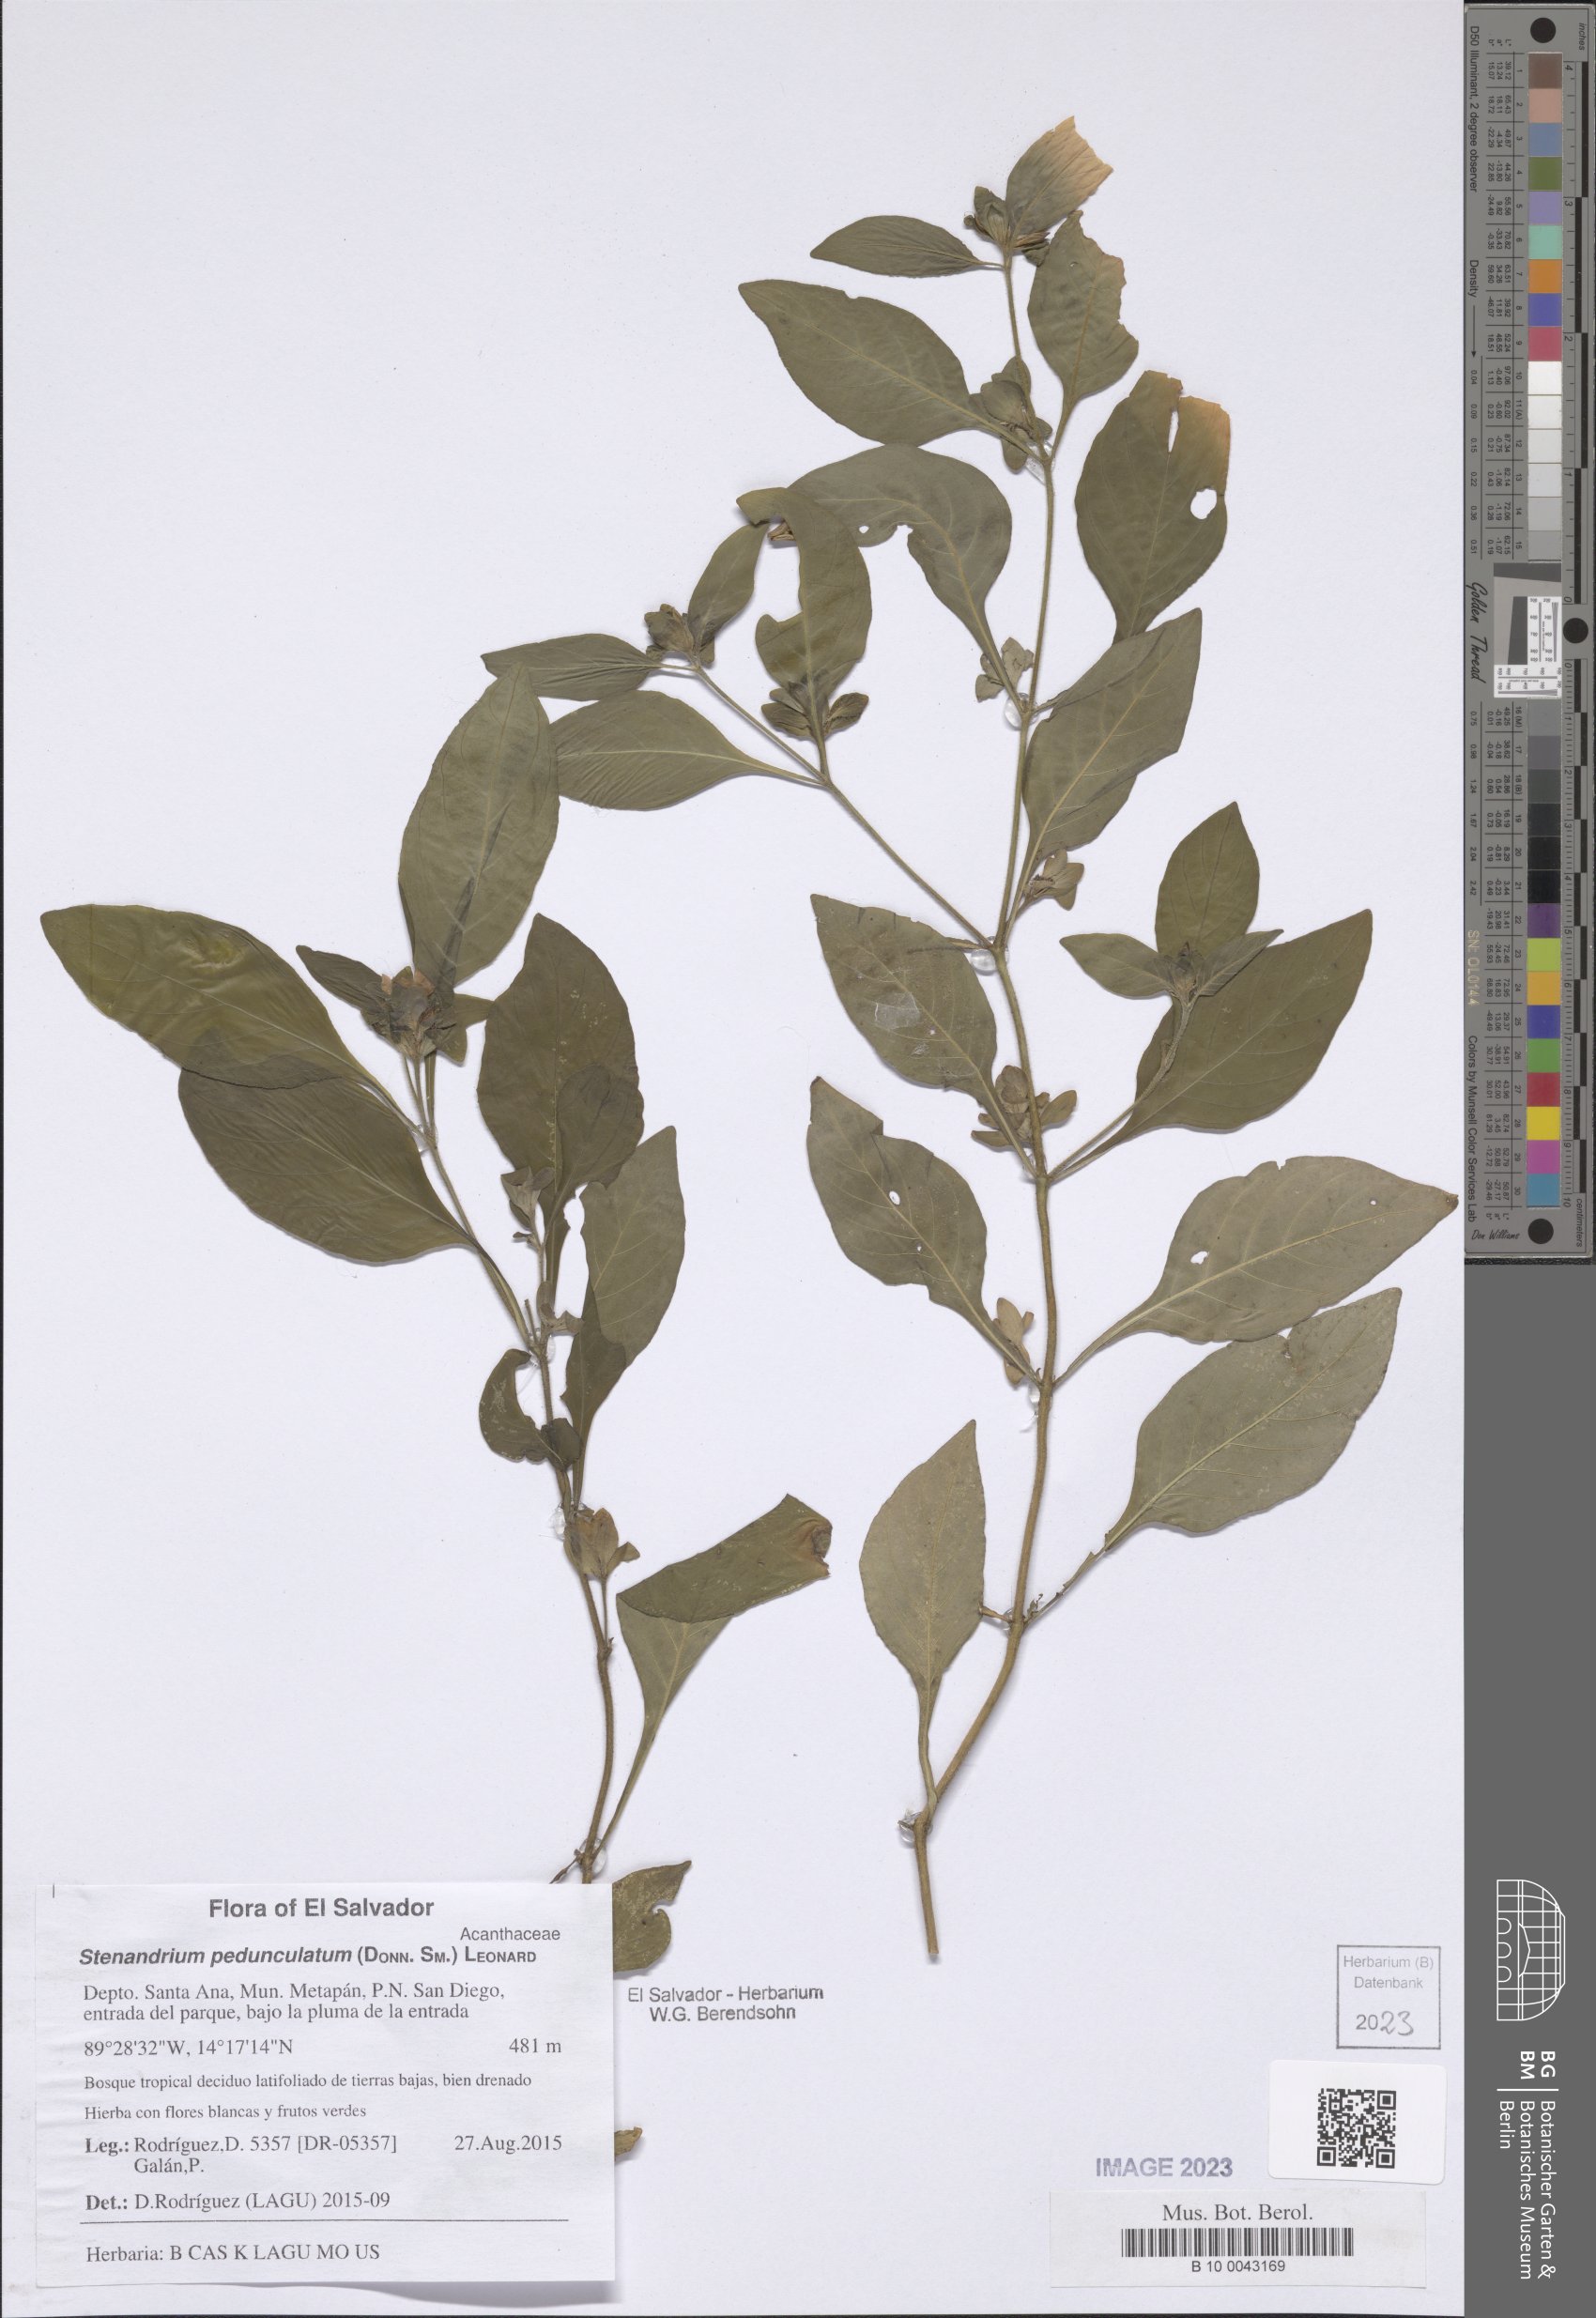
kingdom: Plantae
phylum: Tracheophyta
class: Magnoliopsida
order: Lamiales
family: Acanthaceae
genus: Stenandrium
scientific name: Stenandrium pedunculatum
